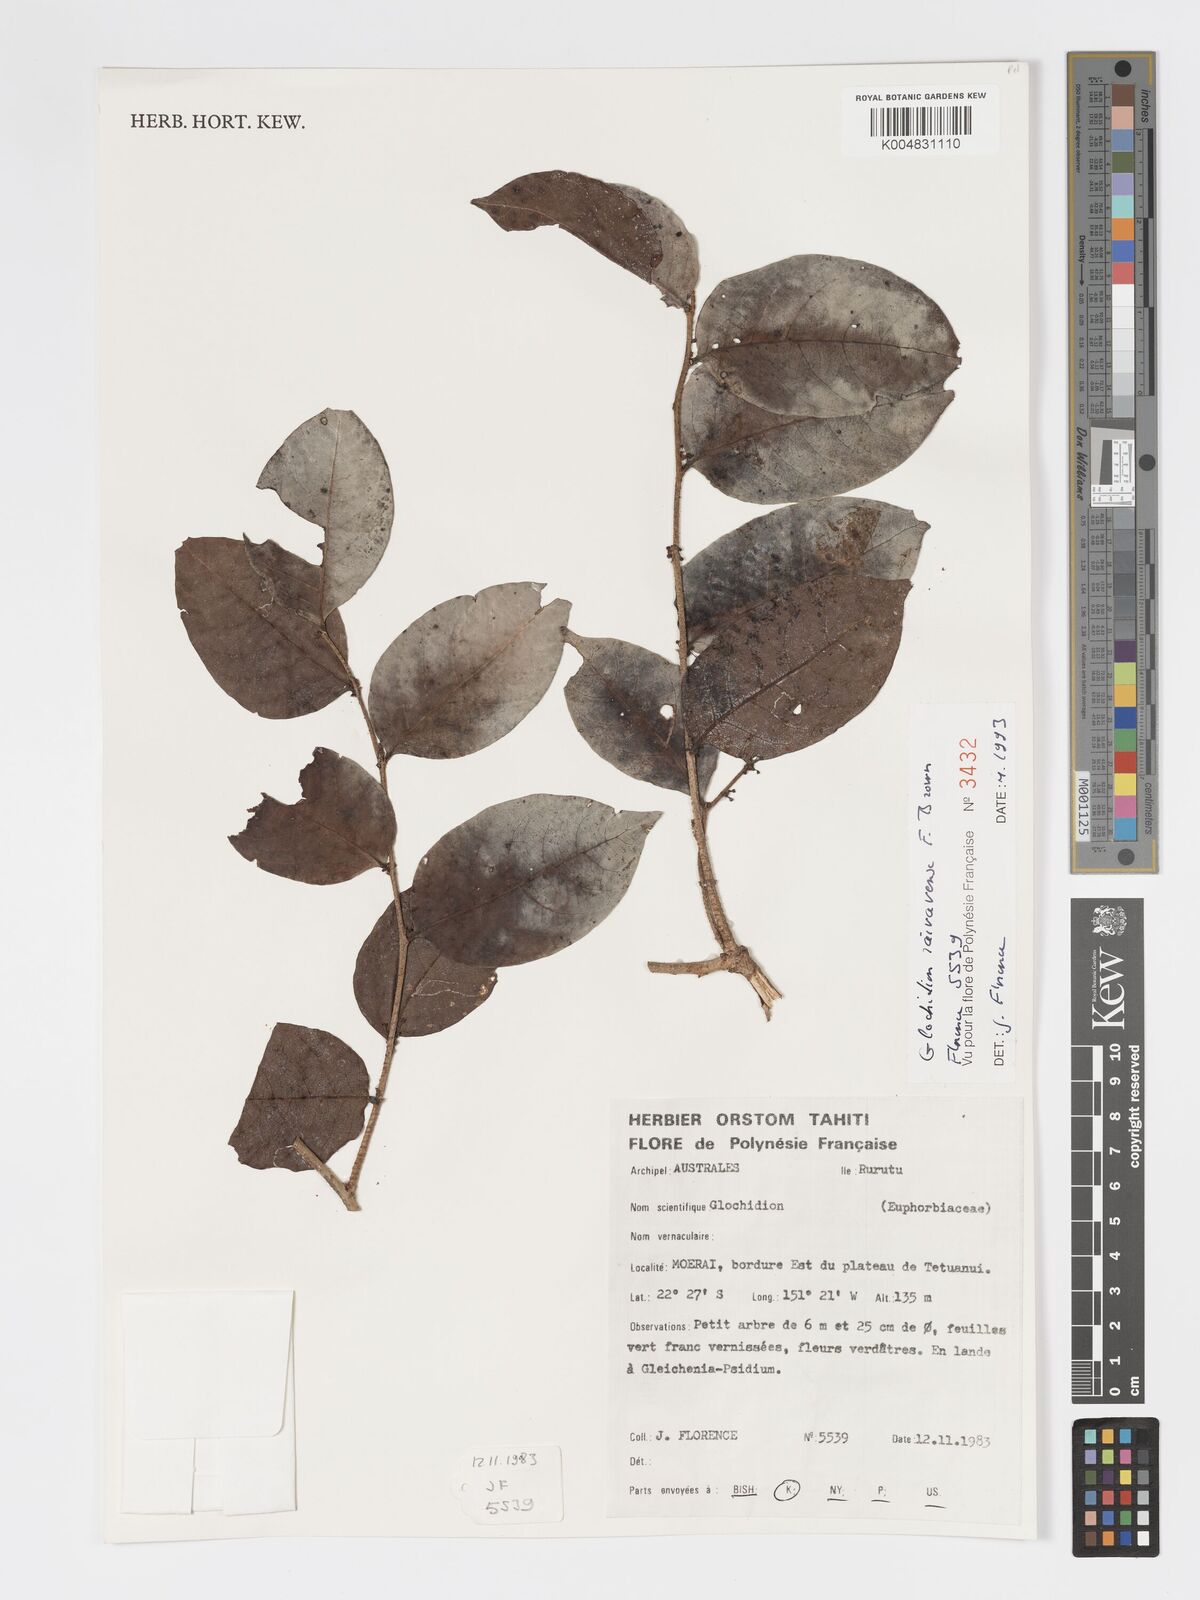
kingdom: Plantae
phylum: Tracheophyta
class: Magnoliopsida
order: Malpighiales
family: Phyllanthaceae
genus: Glochidion
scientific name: Glochidion raivavense
